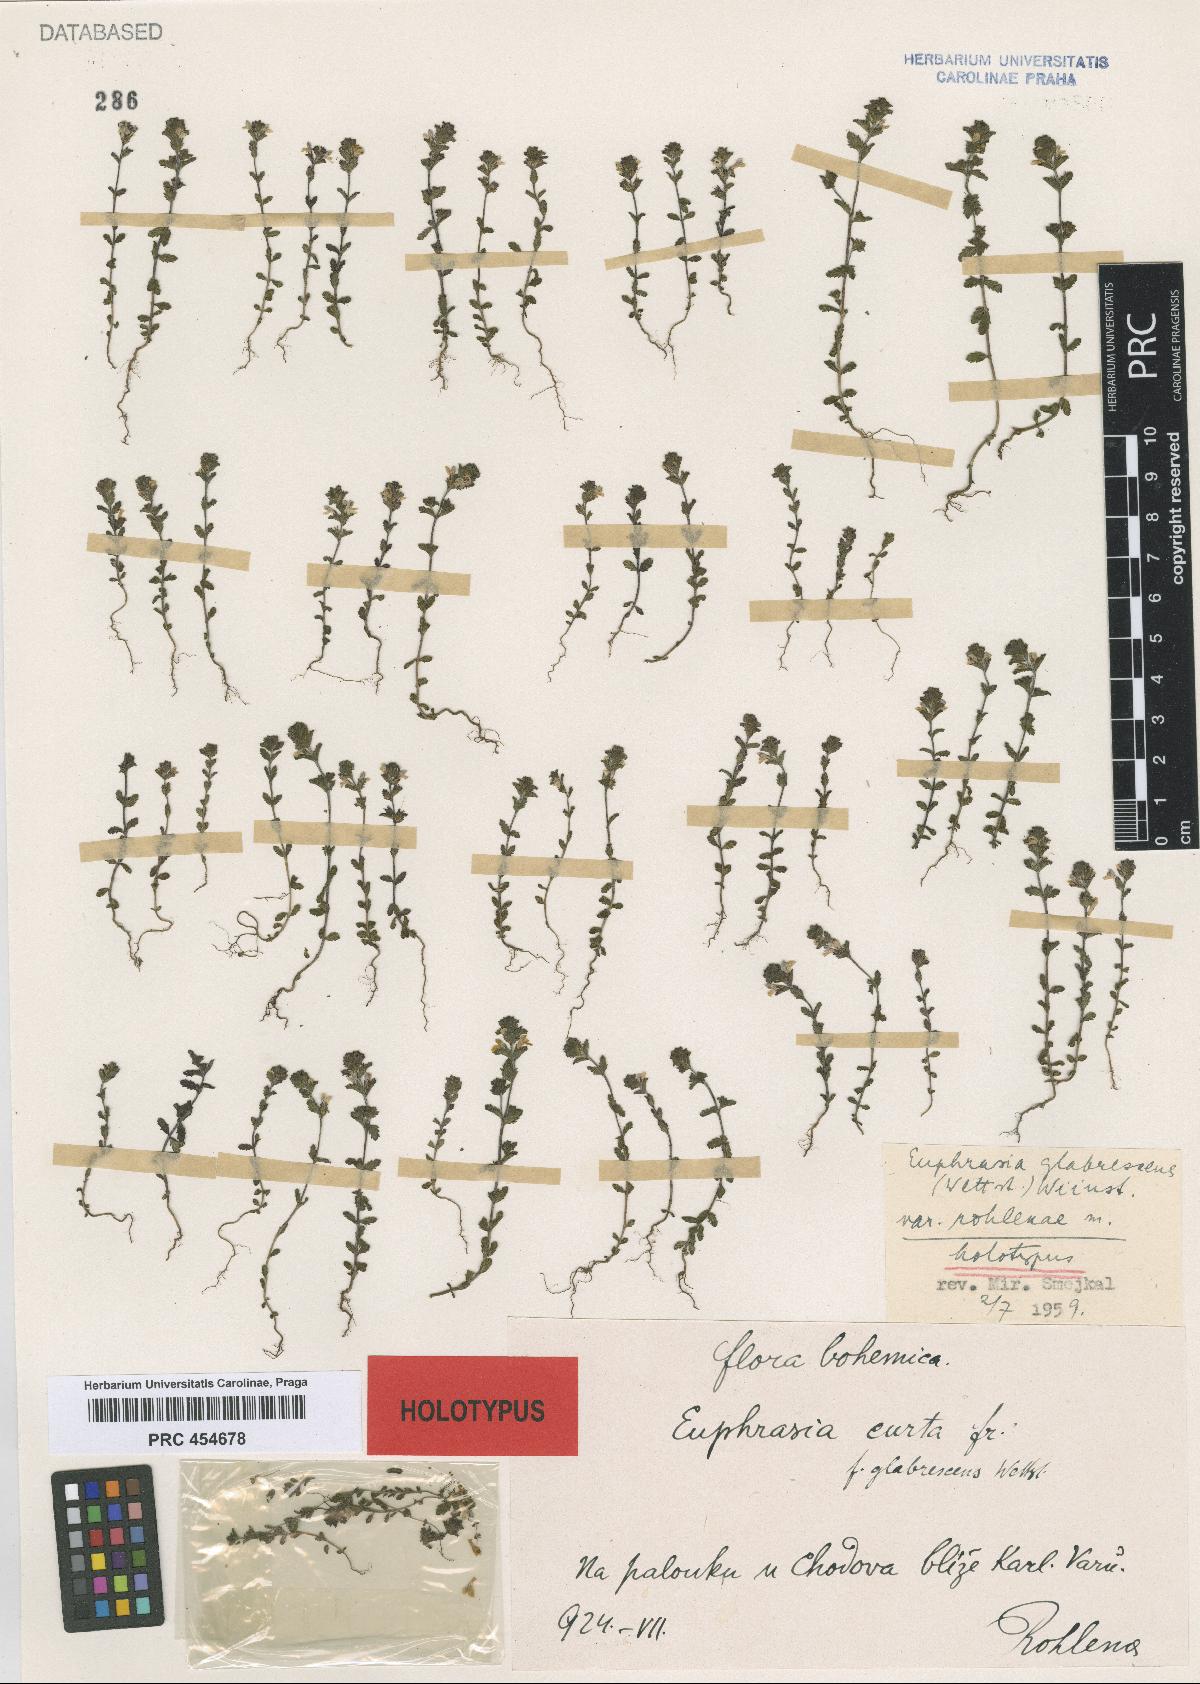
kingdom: Plantae
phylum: Tracheophyta
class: Magnoliopsida
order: Lamiales
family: Orobanchaceae
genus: Euphrasia
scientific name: Euphrasia
